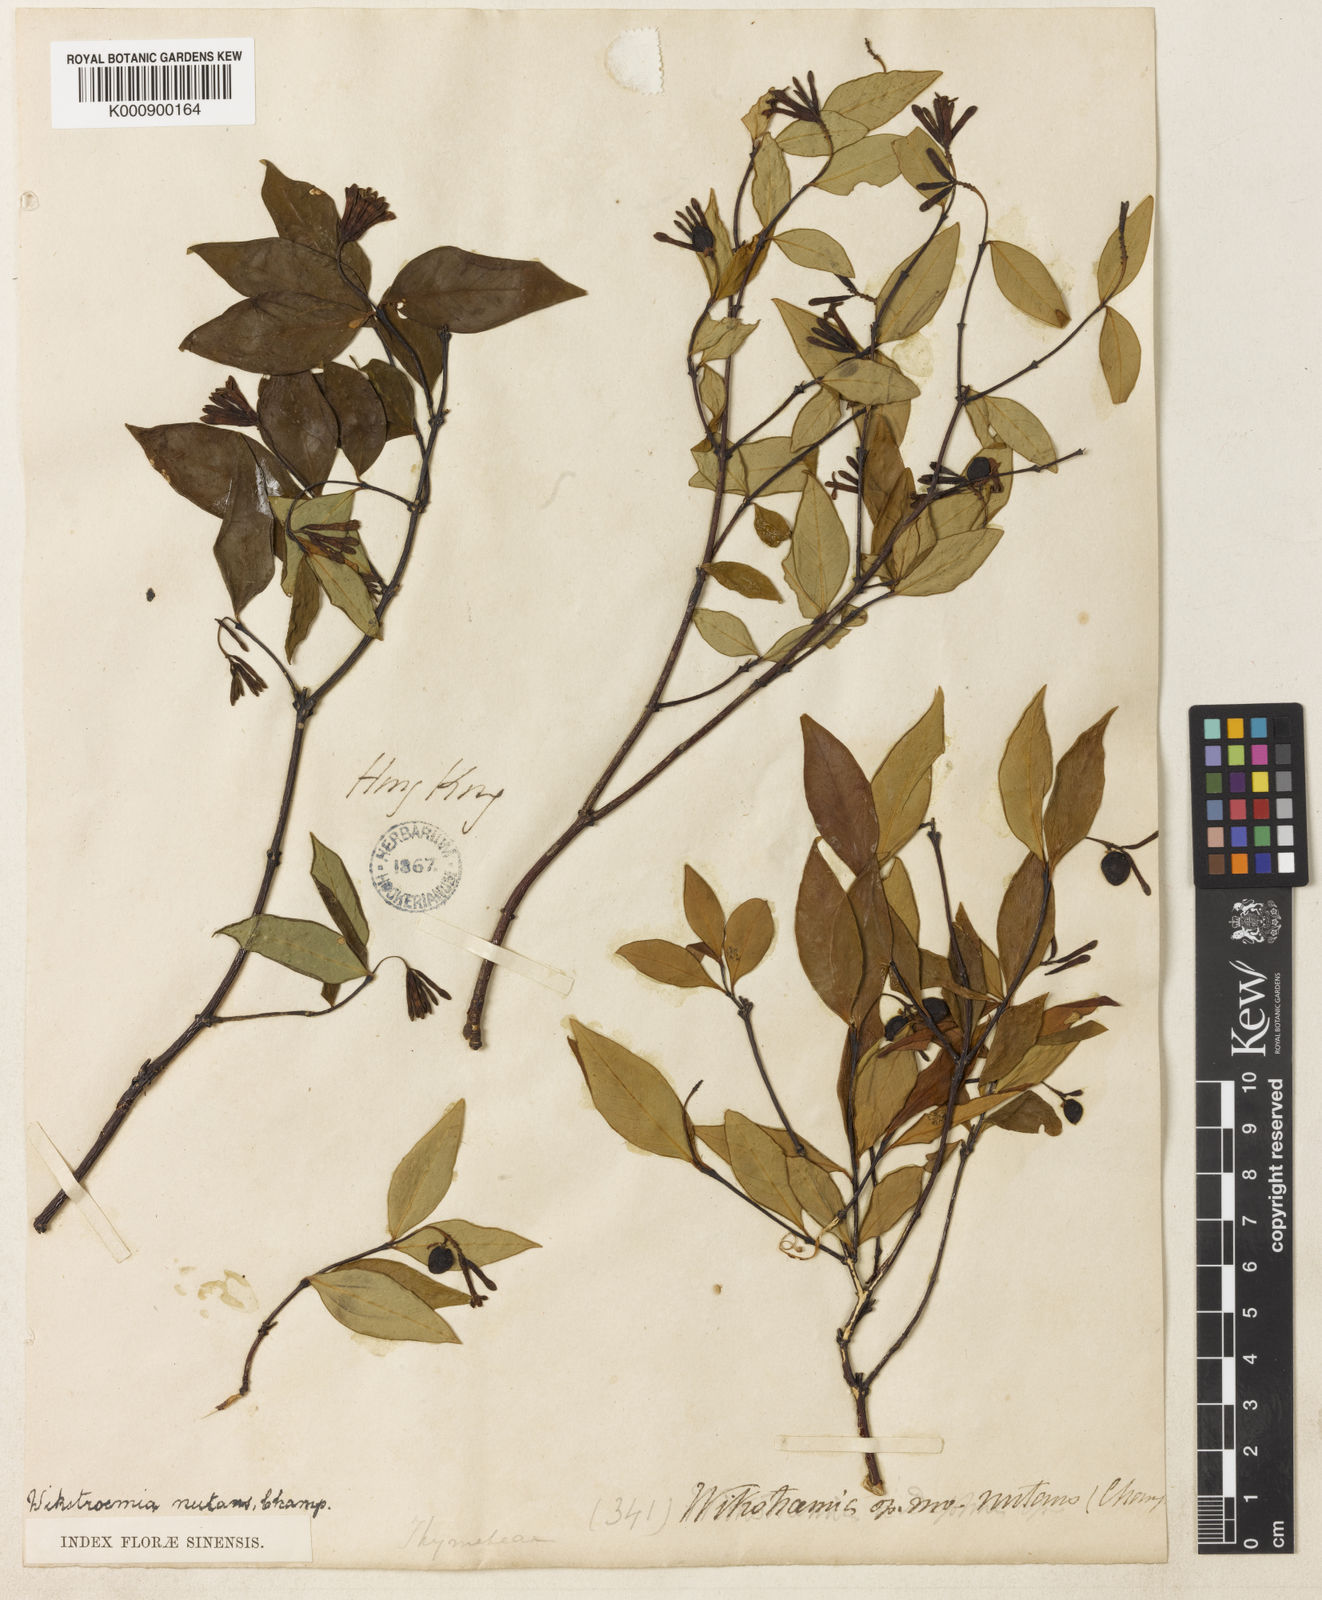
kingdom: Plantae
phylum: Tracheophyta
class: Magnoliopsida
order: Malvales
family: Thymelaeaceae
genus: Wikstroemia
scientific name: Wikstroemia nutans
